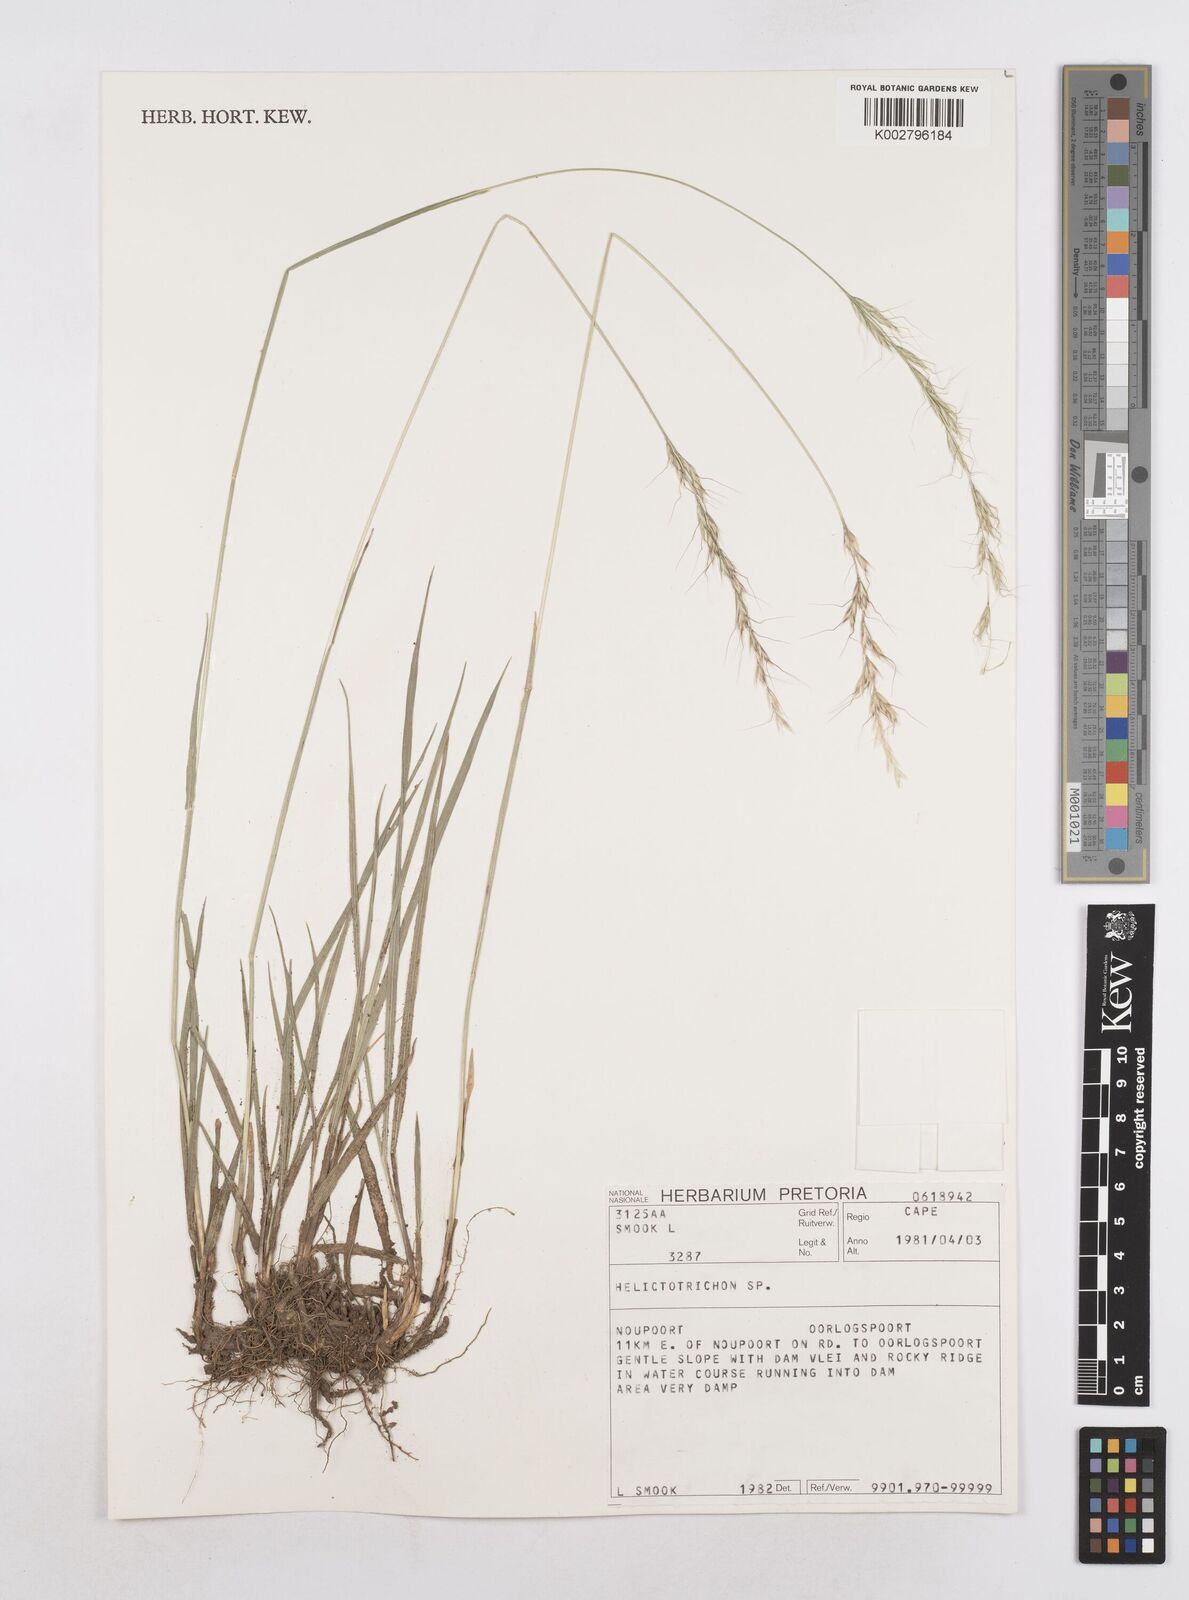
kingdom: Plantae
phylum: Tracheophyta
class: Liliopsida
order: Poales
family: Poaceae
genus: Helictotrichon
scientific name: Helictotrichon
